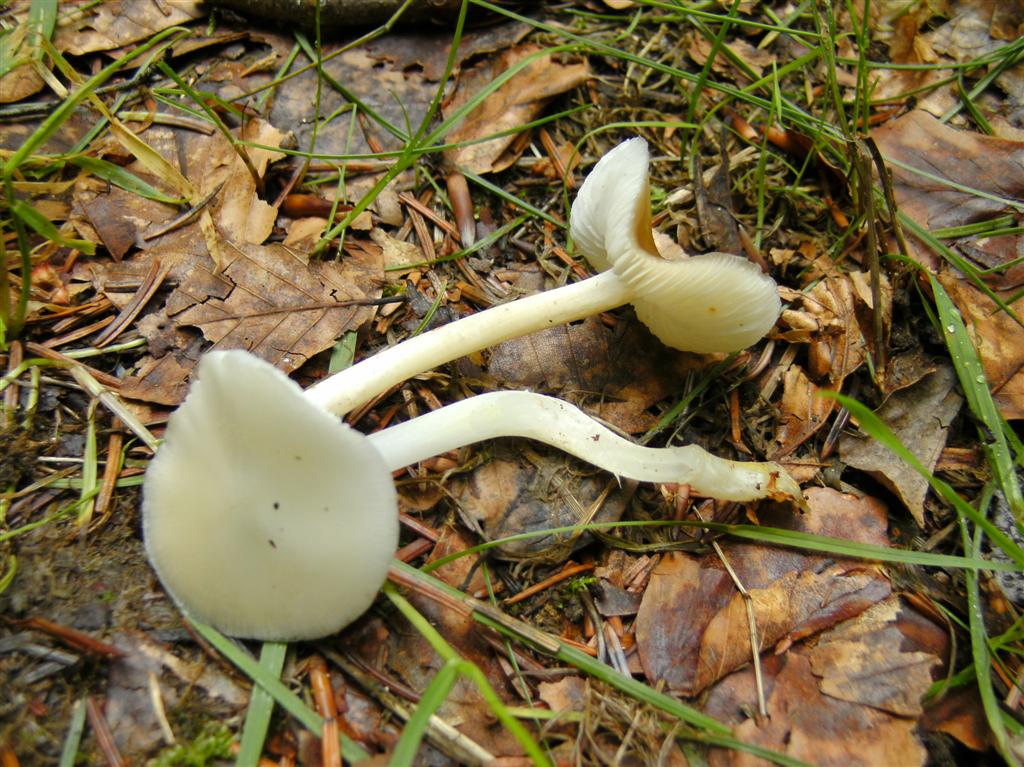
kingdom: Fungi
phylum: Basidiomycota
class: Agaricomycetes
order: Agaricales
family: Porotheleaceae
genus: Hydropodia
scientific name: Hydropodia subalpina
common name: vår-fnugfod
